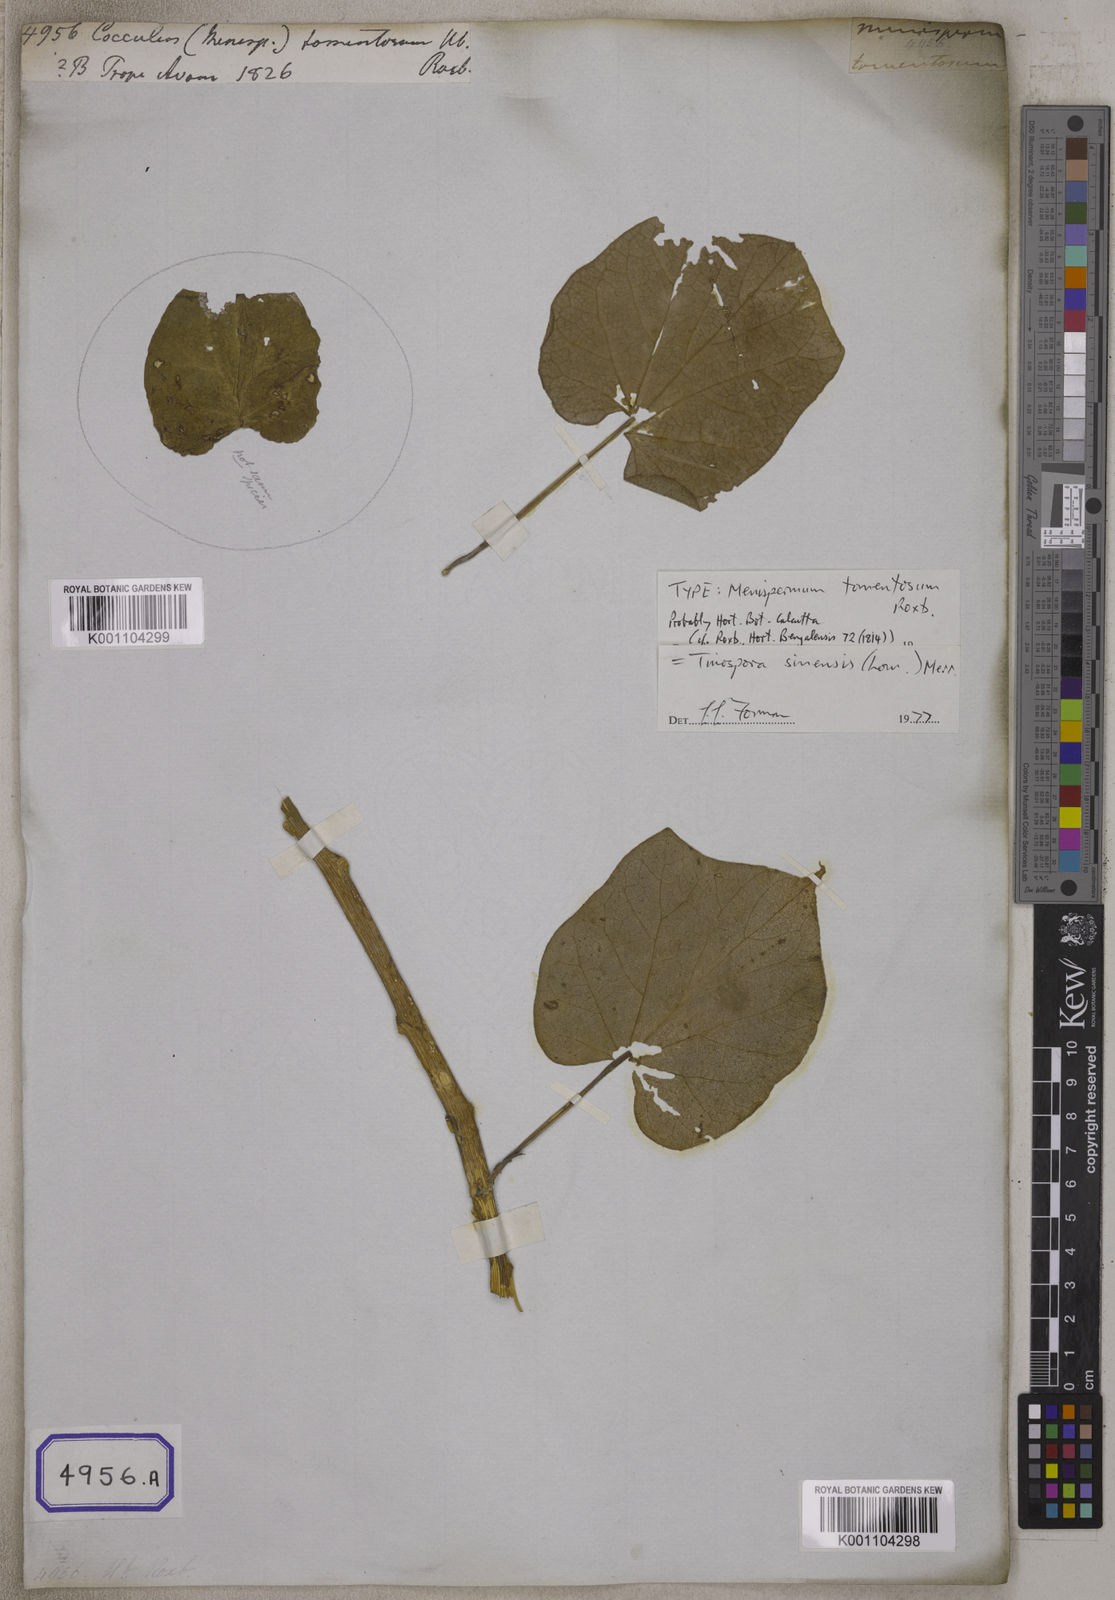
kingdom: Plantae
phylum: Tracheophyta
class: Magnoliopsida
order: Ranunculales
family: Menispermaceae
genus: Tinospora
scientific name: Tinospora sinensis
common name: Chinese tinospora
